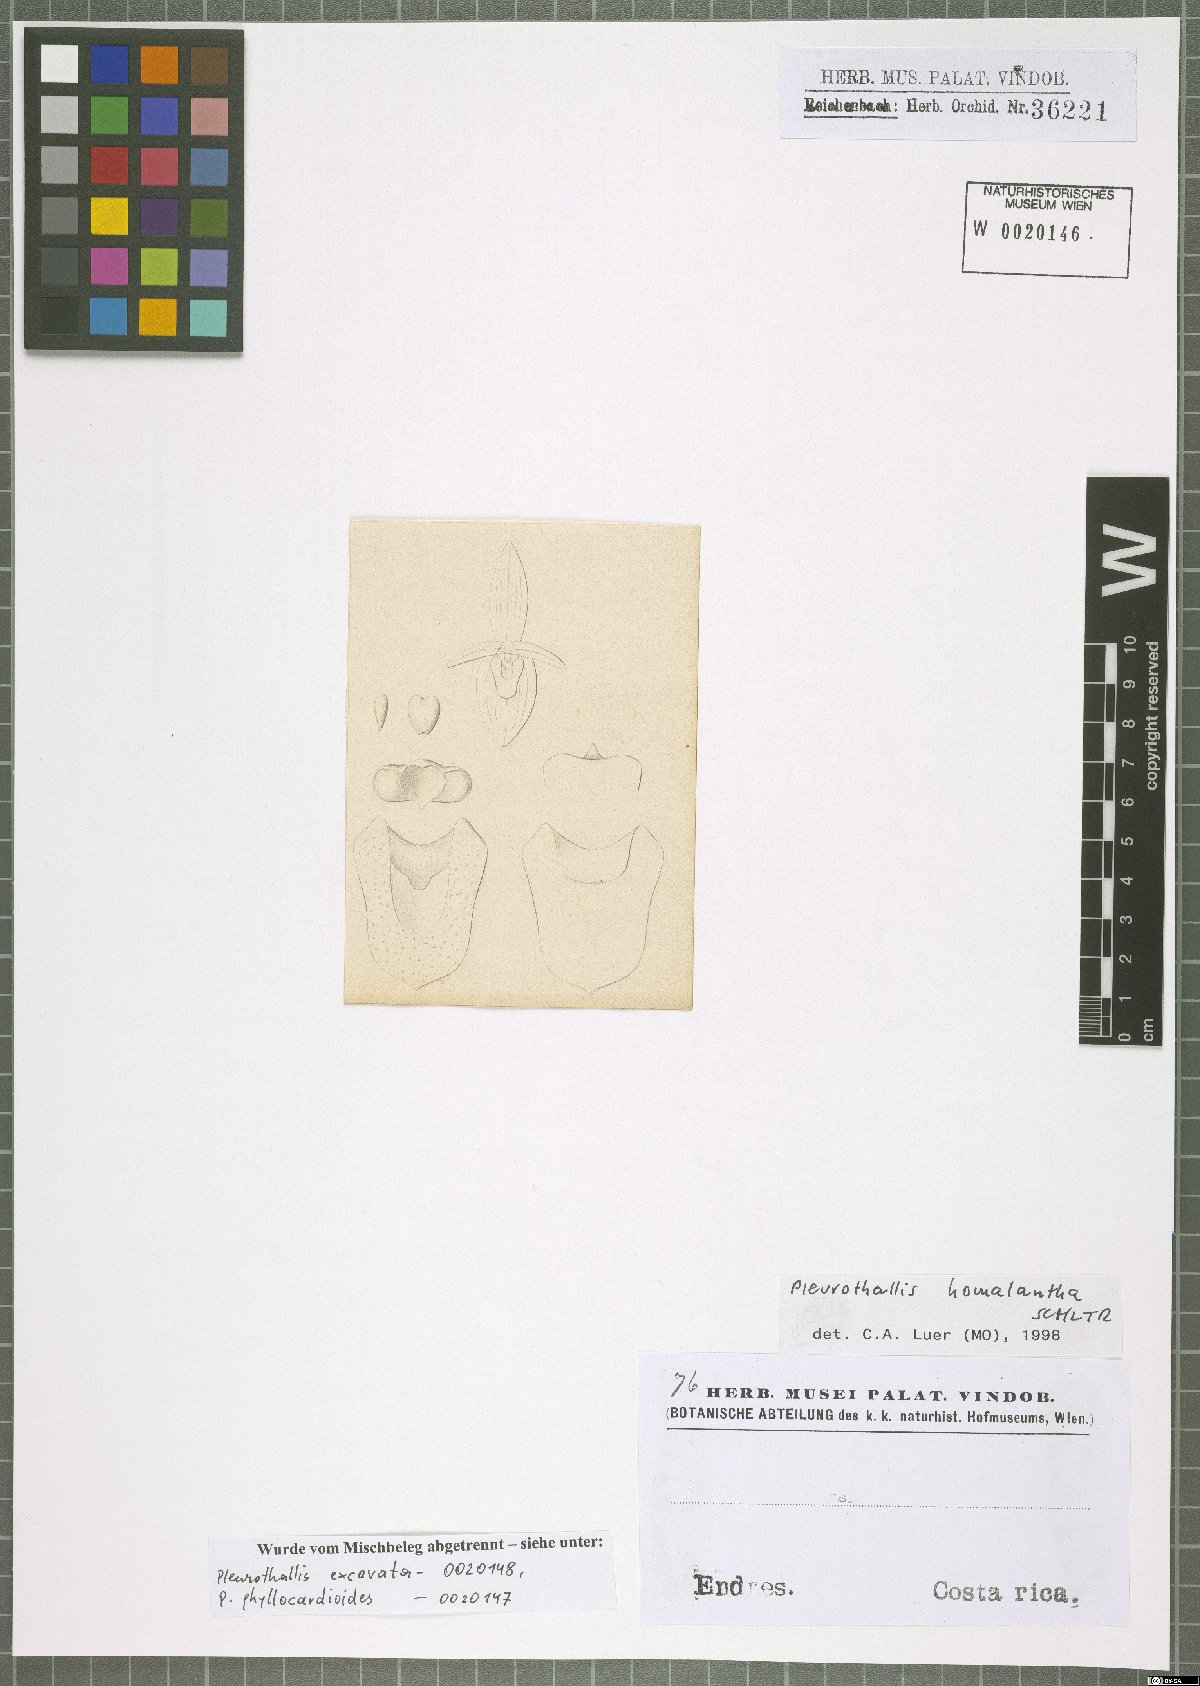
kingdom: Plantae
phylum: Tracheophyta
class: Liliopsida
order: Asparagales
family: Orchidaceae
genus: Pleurothallis
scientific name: Pleurothallis homalantha
